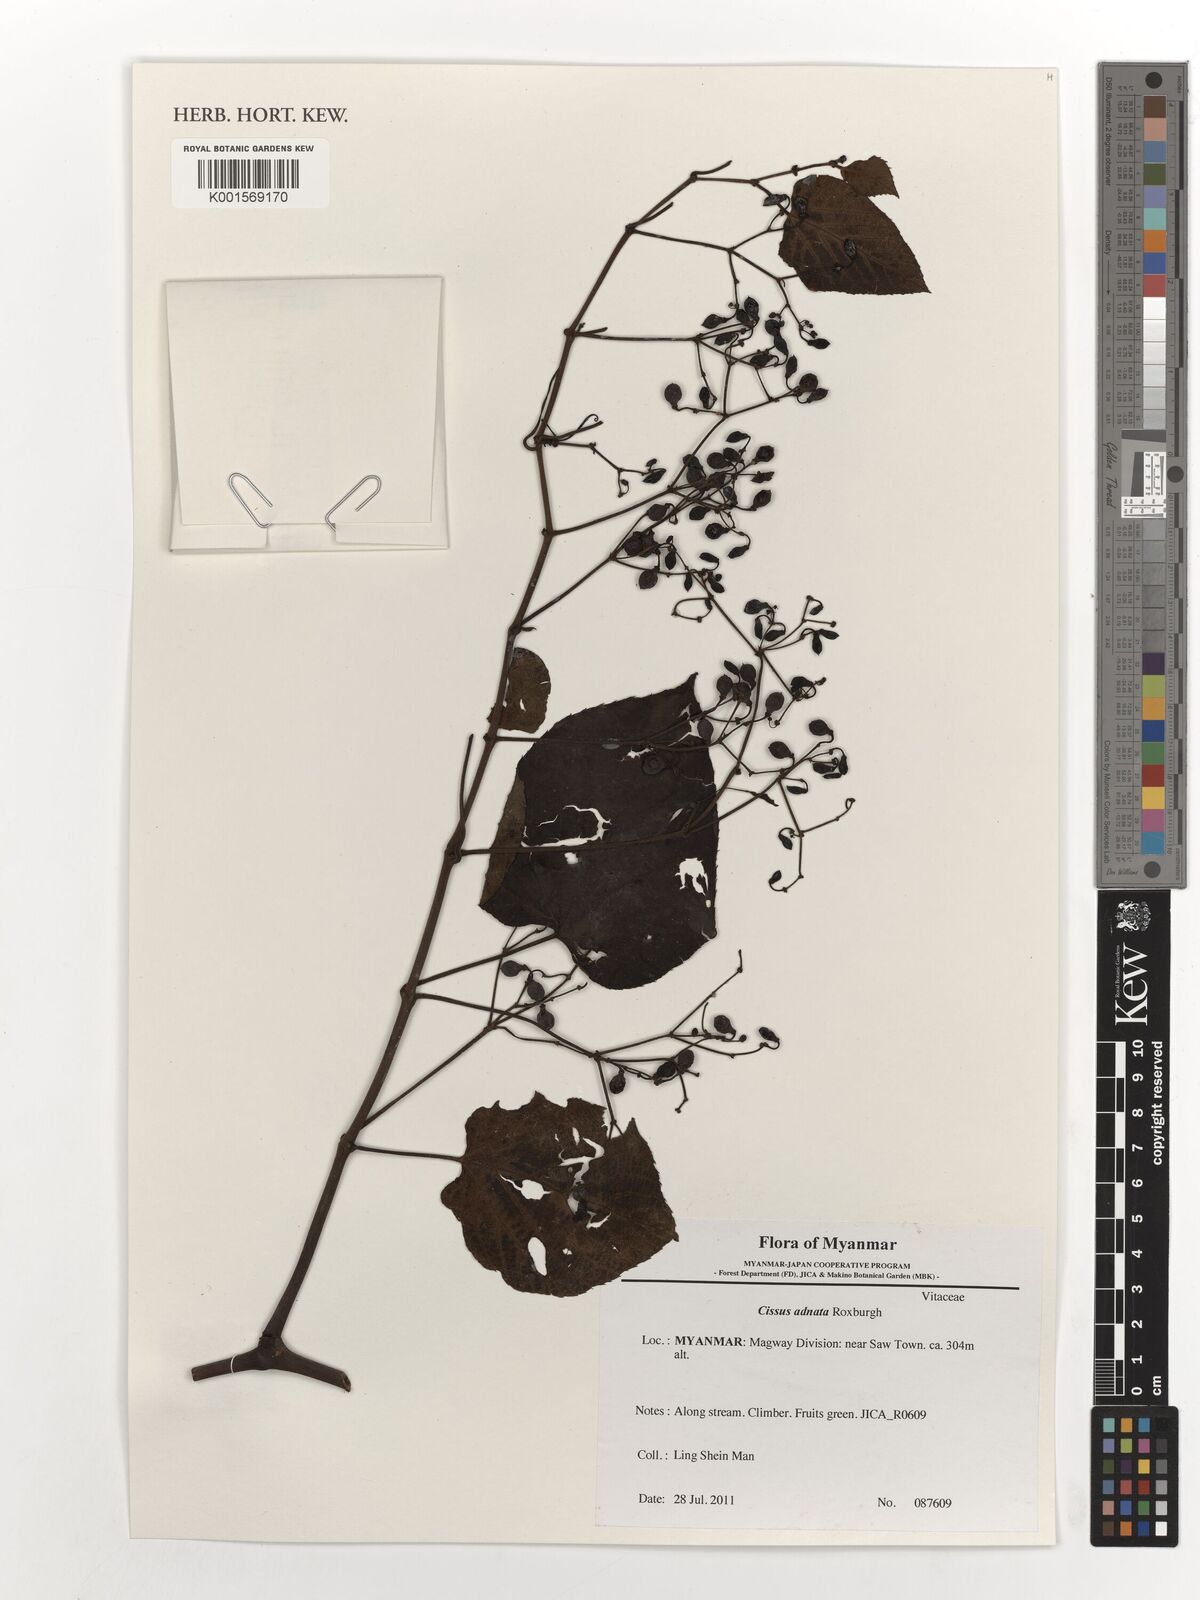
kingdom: Plantae
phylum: Tracheophyta
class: Magnoliopsida
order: Vitales
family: Vitaceae
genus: Cissus
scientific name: Cissus adnata
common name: Heart-leaf-grape
